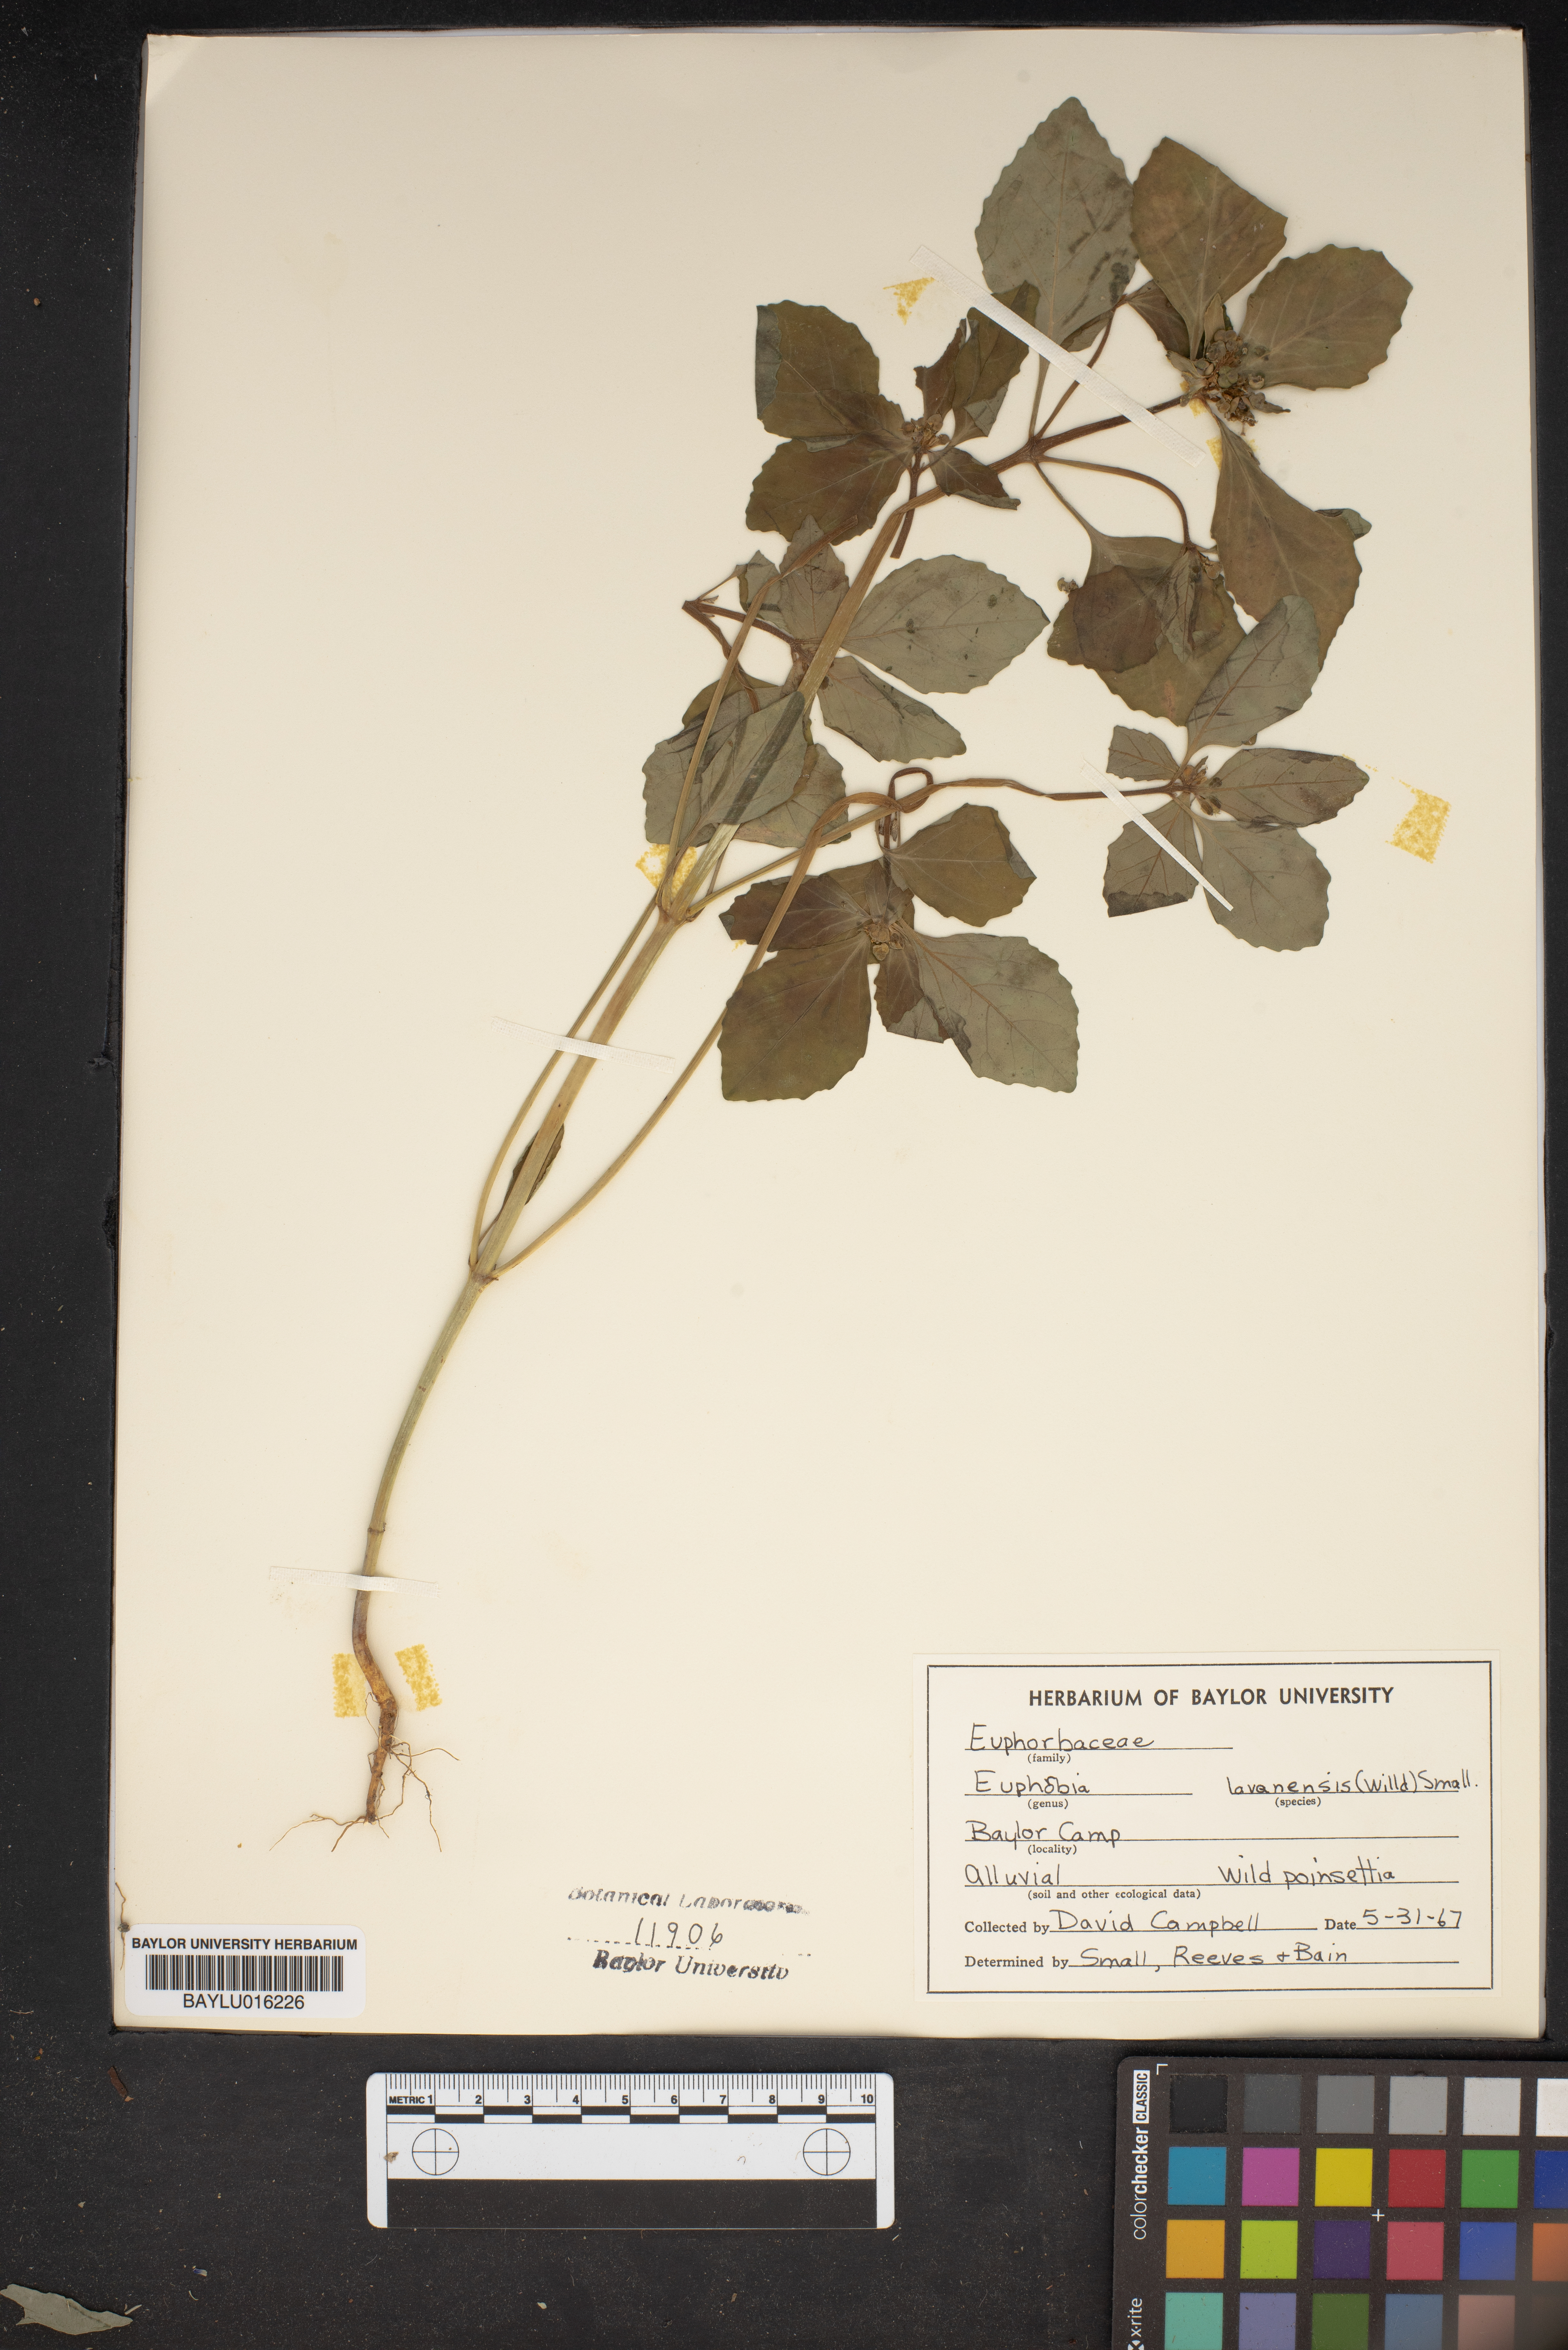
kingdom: Plantae
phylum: Tracheophyta
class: Magnoliopsida
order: Malpighiales
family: Euphorbiaceae
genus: Euphorbia
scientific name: Euphorbia lagunensis
